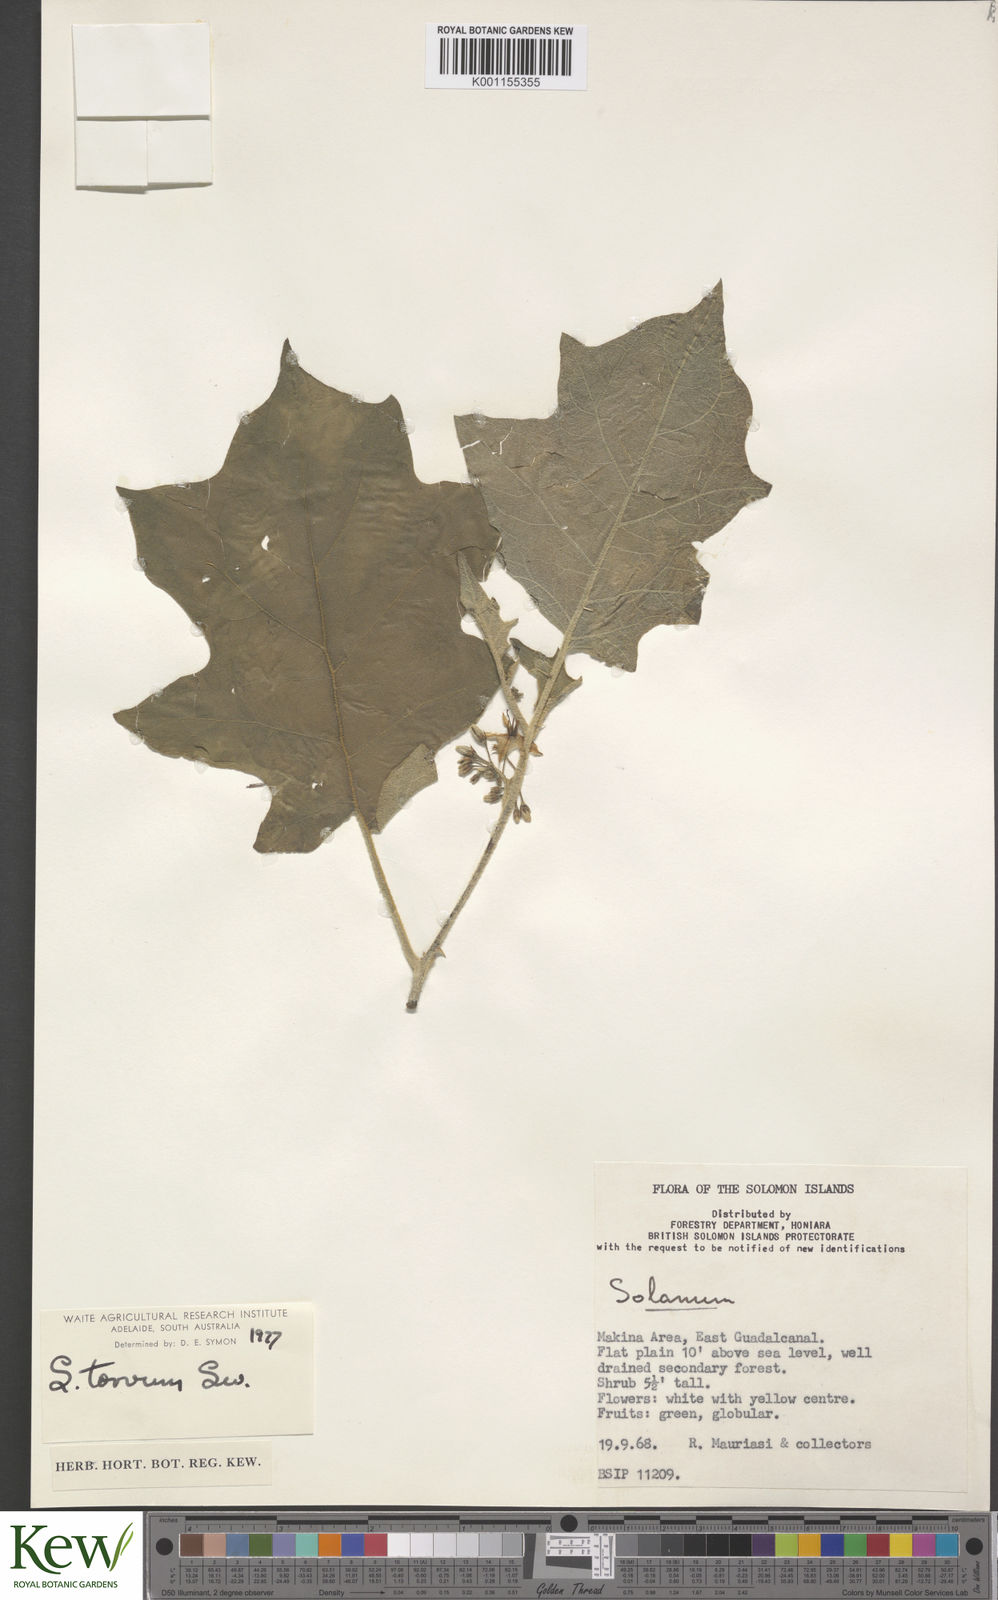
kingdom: Plantae
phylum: Tracheophyta
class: Magnoliopsida
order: Solanales
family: Solanaceae
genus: Solanum
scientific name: Solanum torvum
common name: Turkey berry
